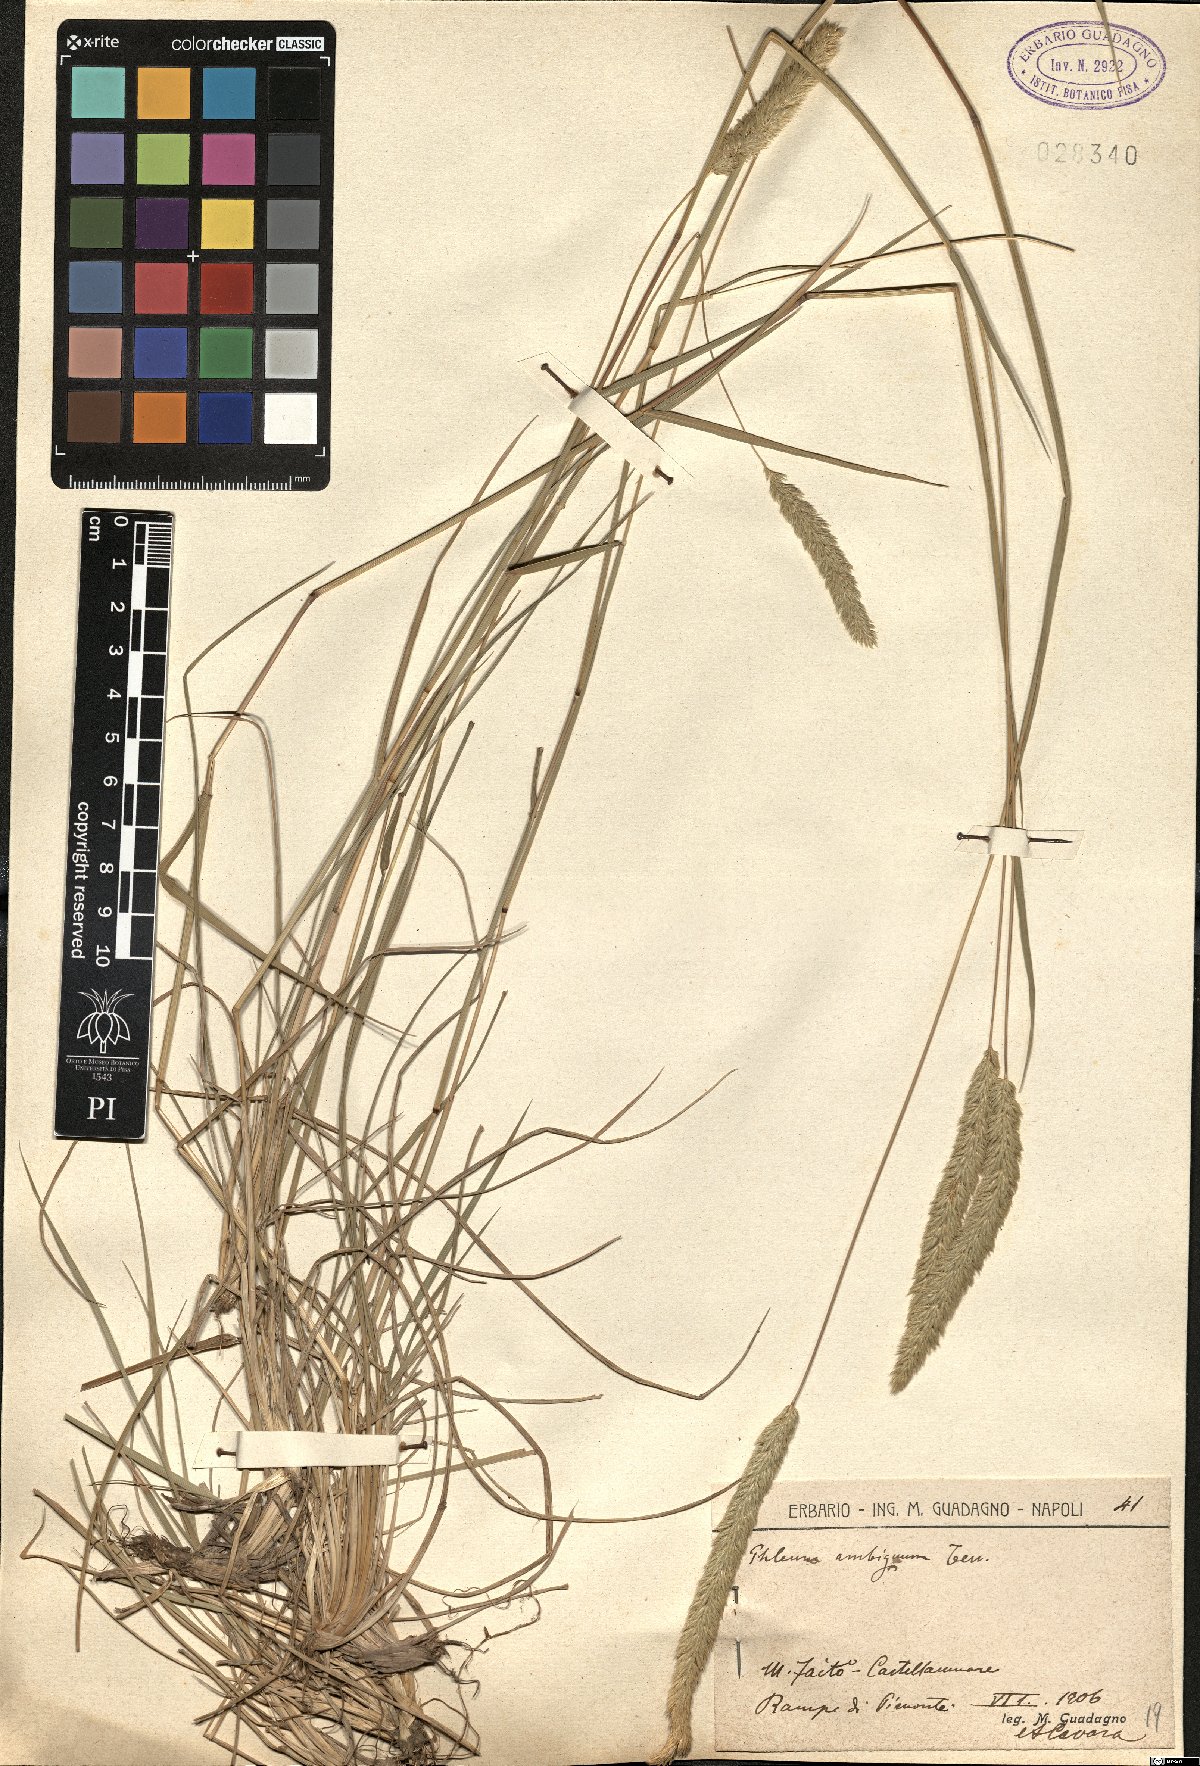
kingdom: Plantae
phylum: Tracheophyta
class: Liliopsida
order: Poales
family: Poaceae
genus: Phleum
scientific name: Phleum hirsutum
